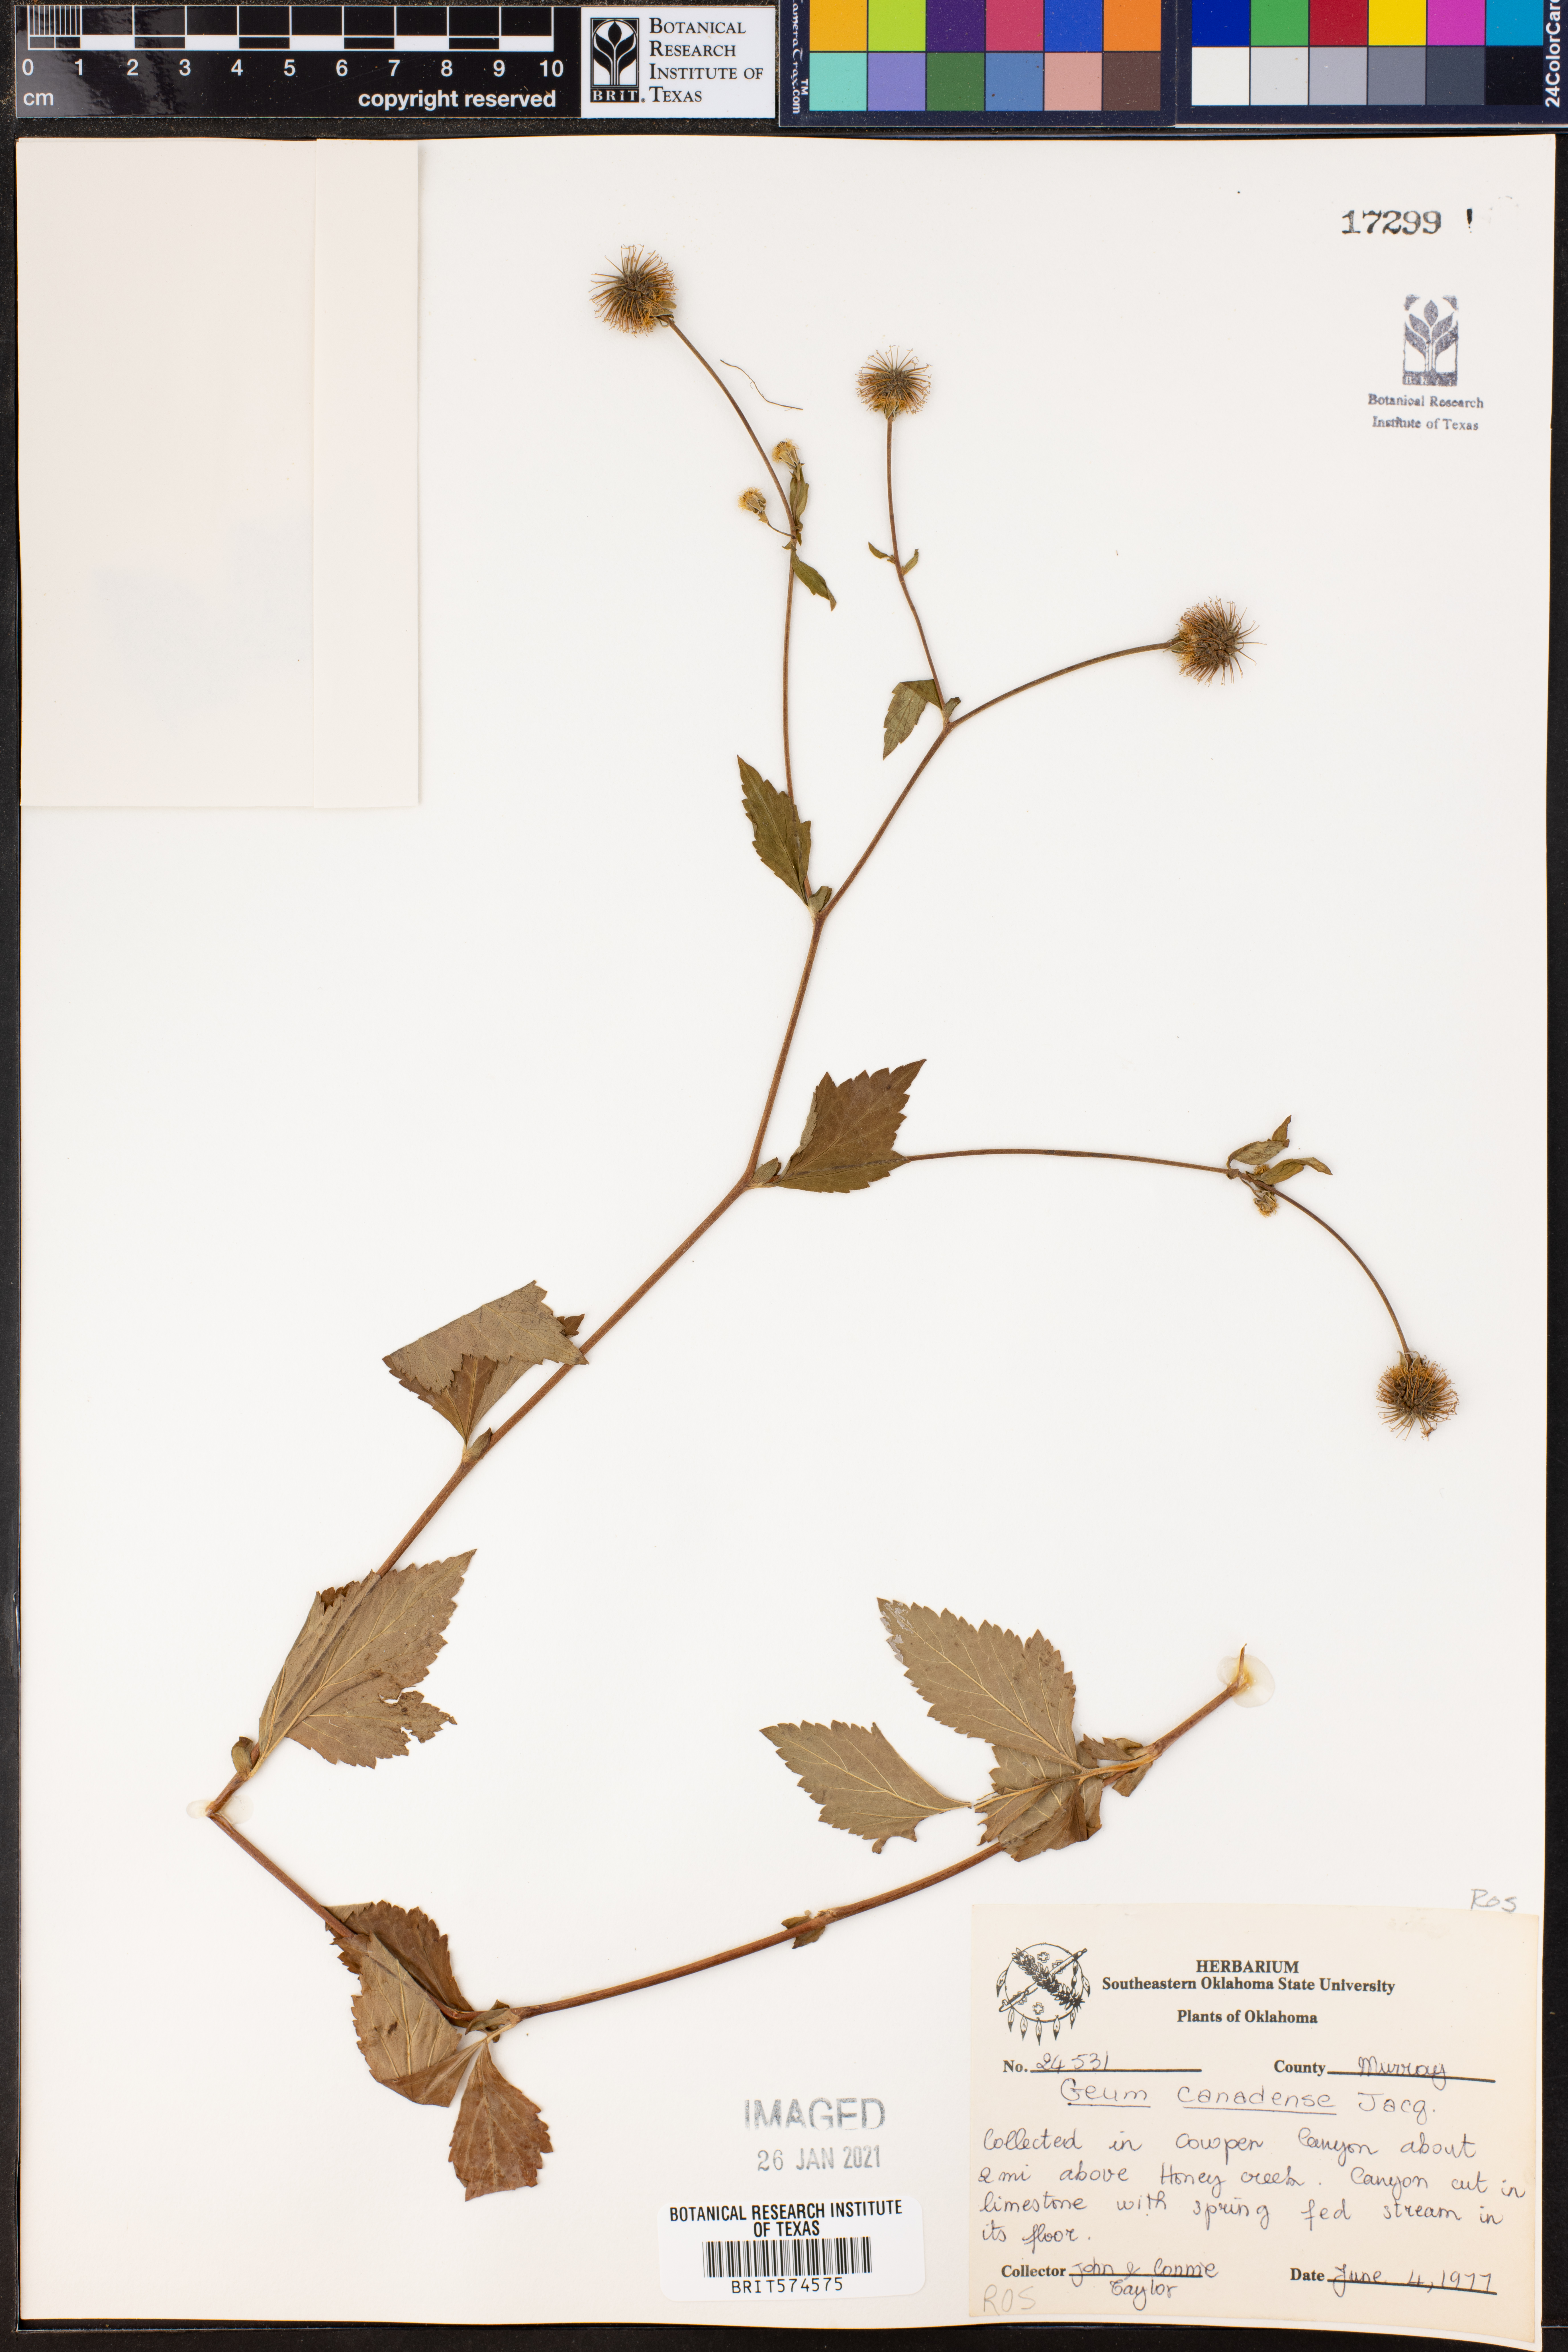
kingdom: Plantae
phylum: Tracheophyta
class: Magnoliopsida
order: Rosales
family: Rosaceae
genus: Geum
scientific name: Geum canadense
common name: White avens
